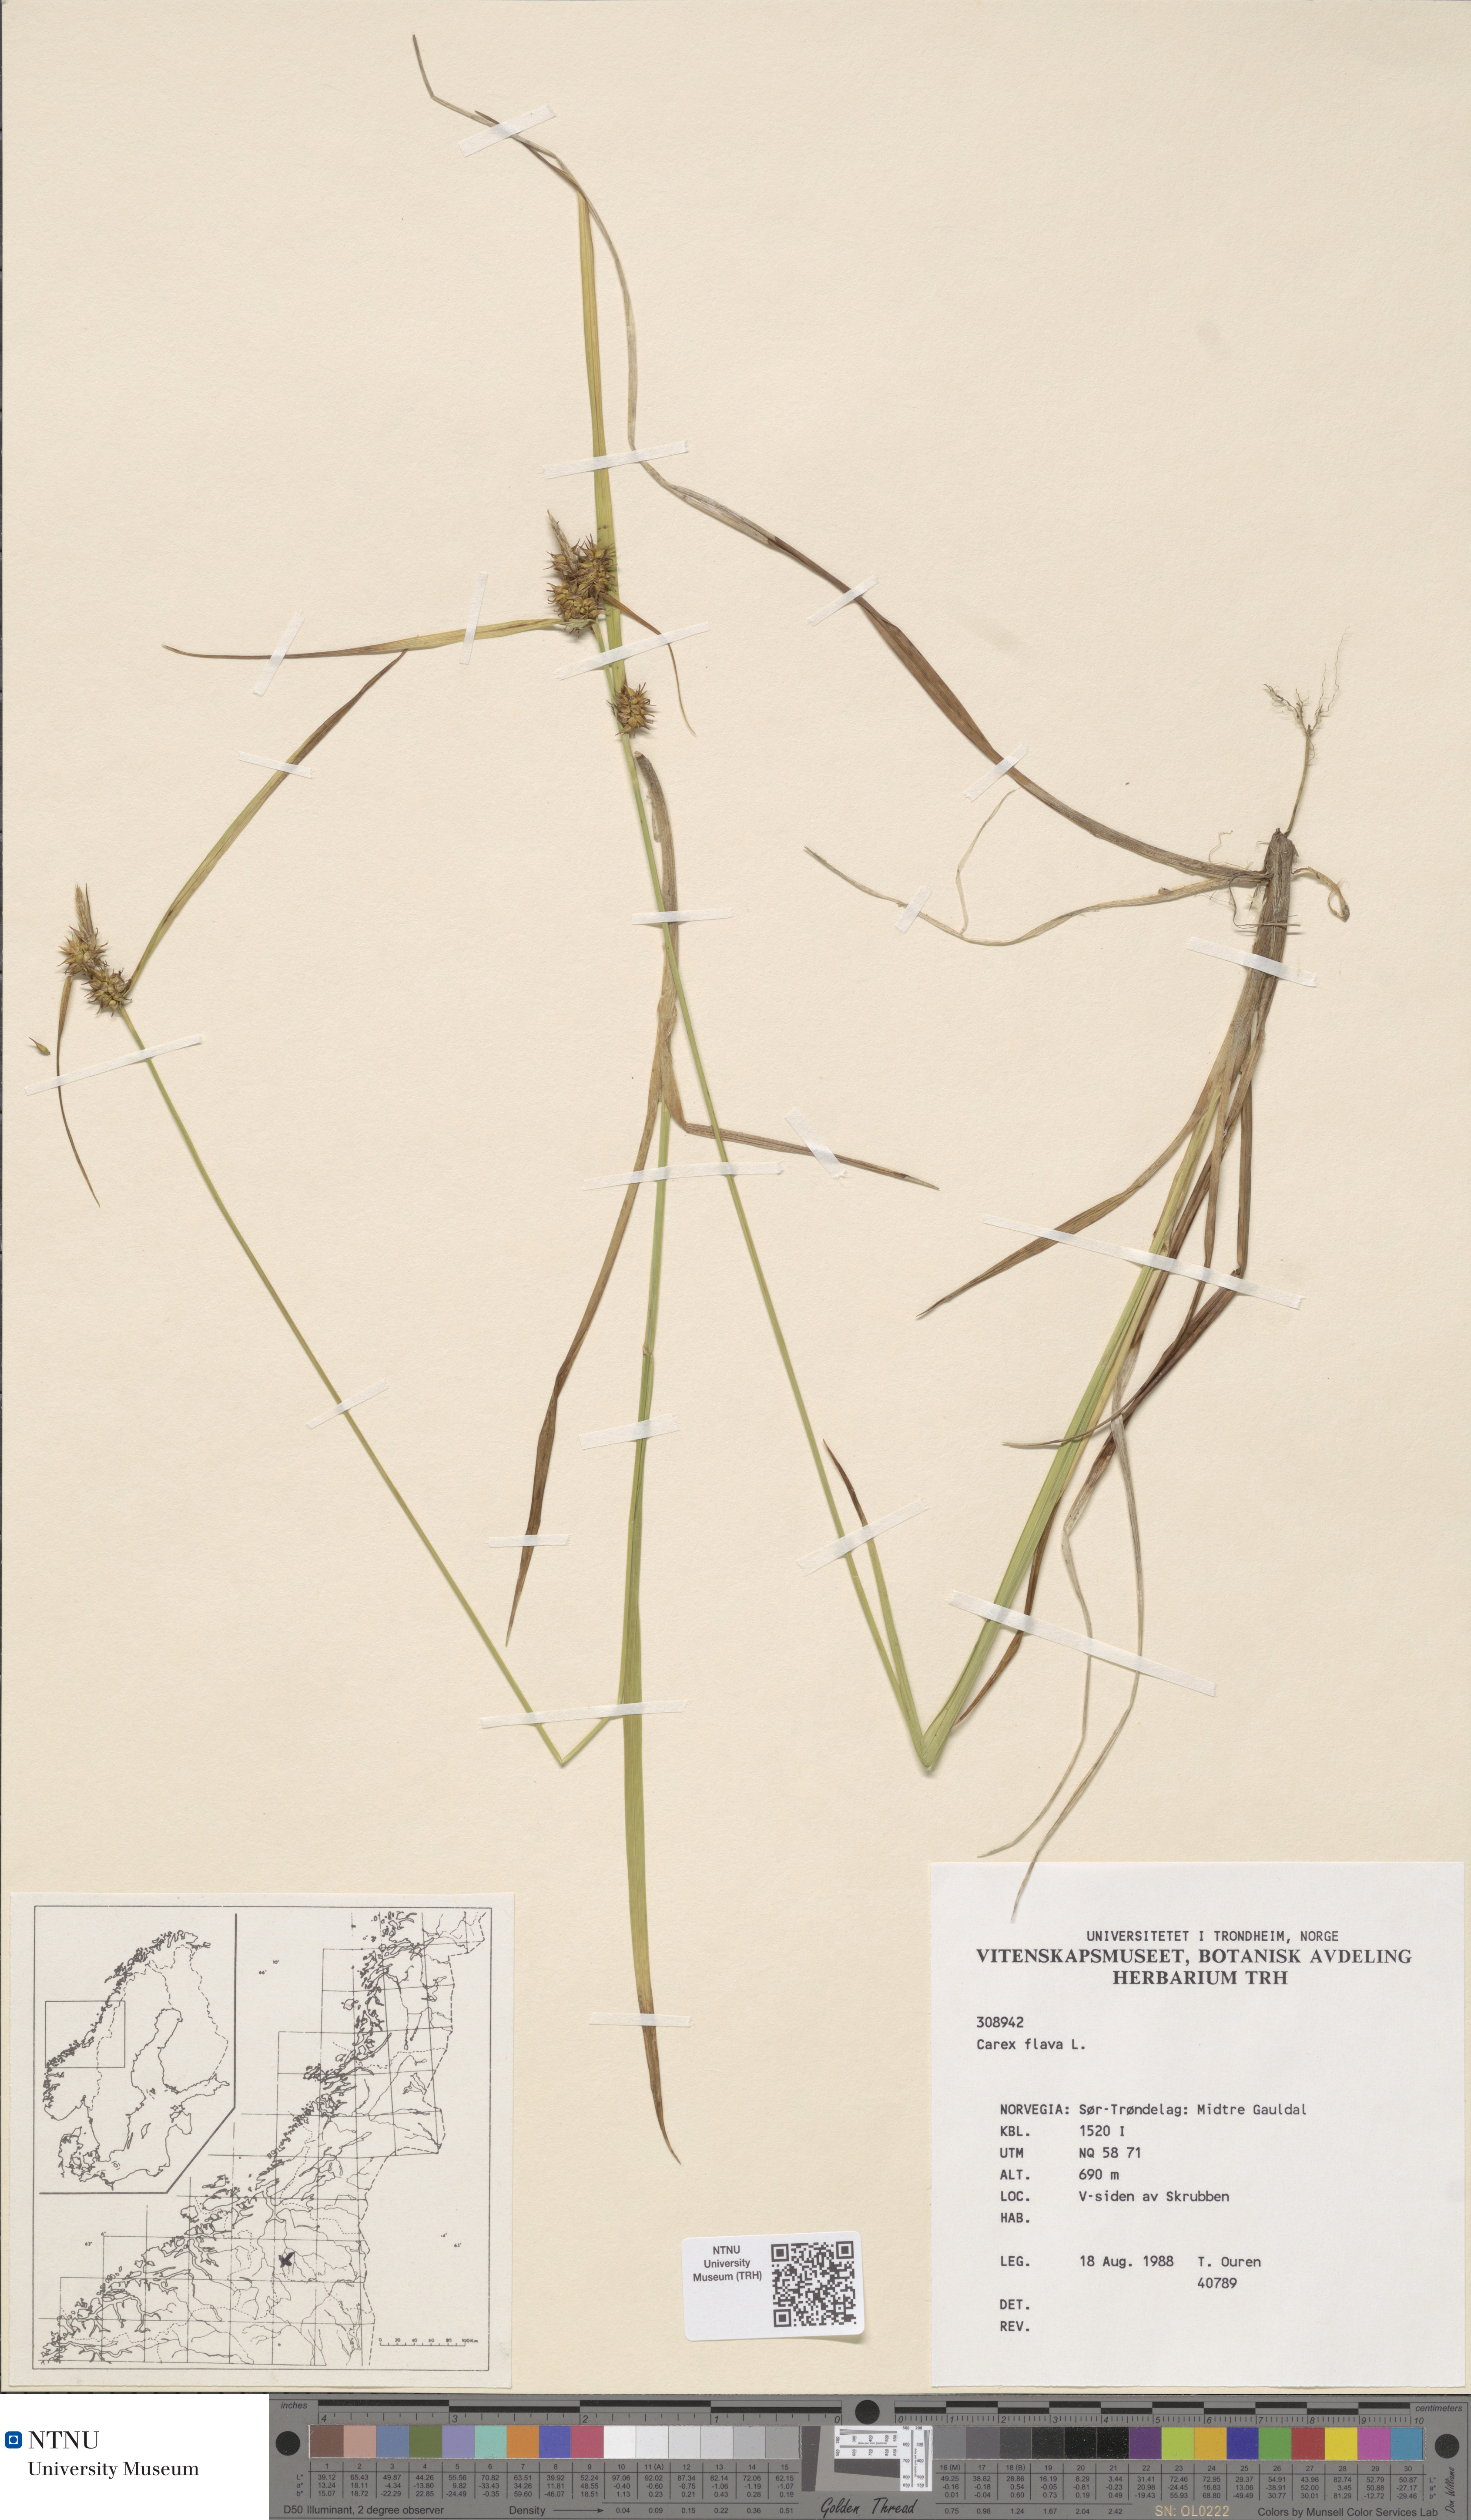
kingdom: Plantae
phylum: Tracheophyta
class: Liliopsida
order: Poales
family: Cyperaceae
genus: Carex
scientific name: Carex flava
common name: Large yellow-sedge
